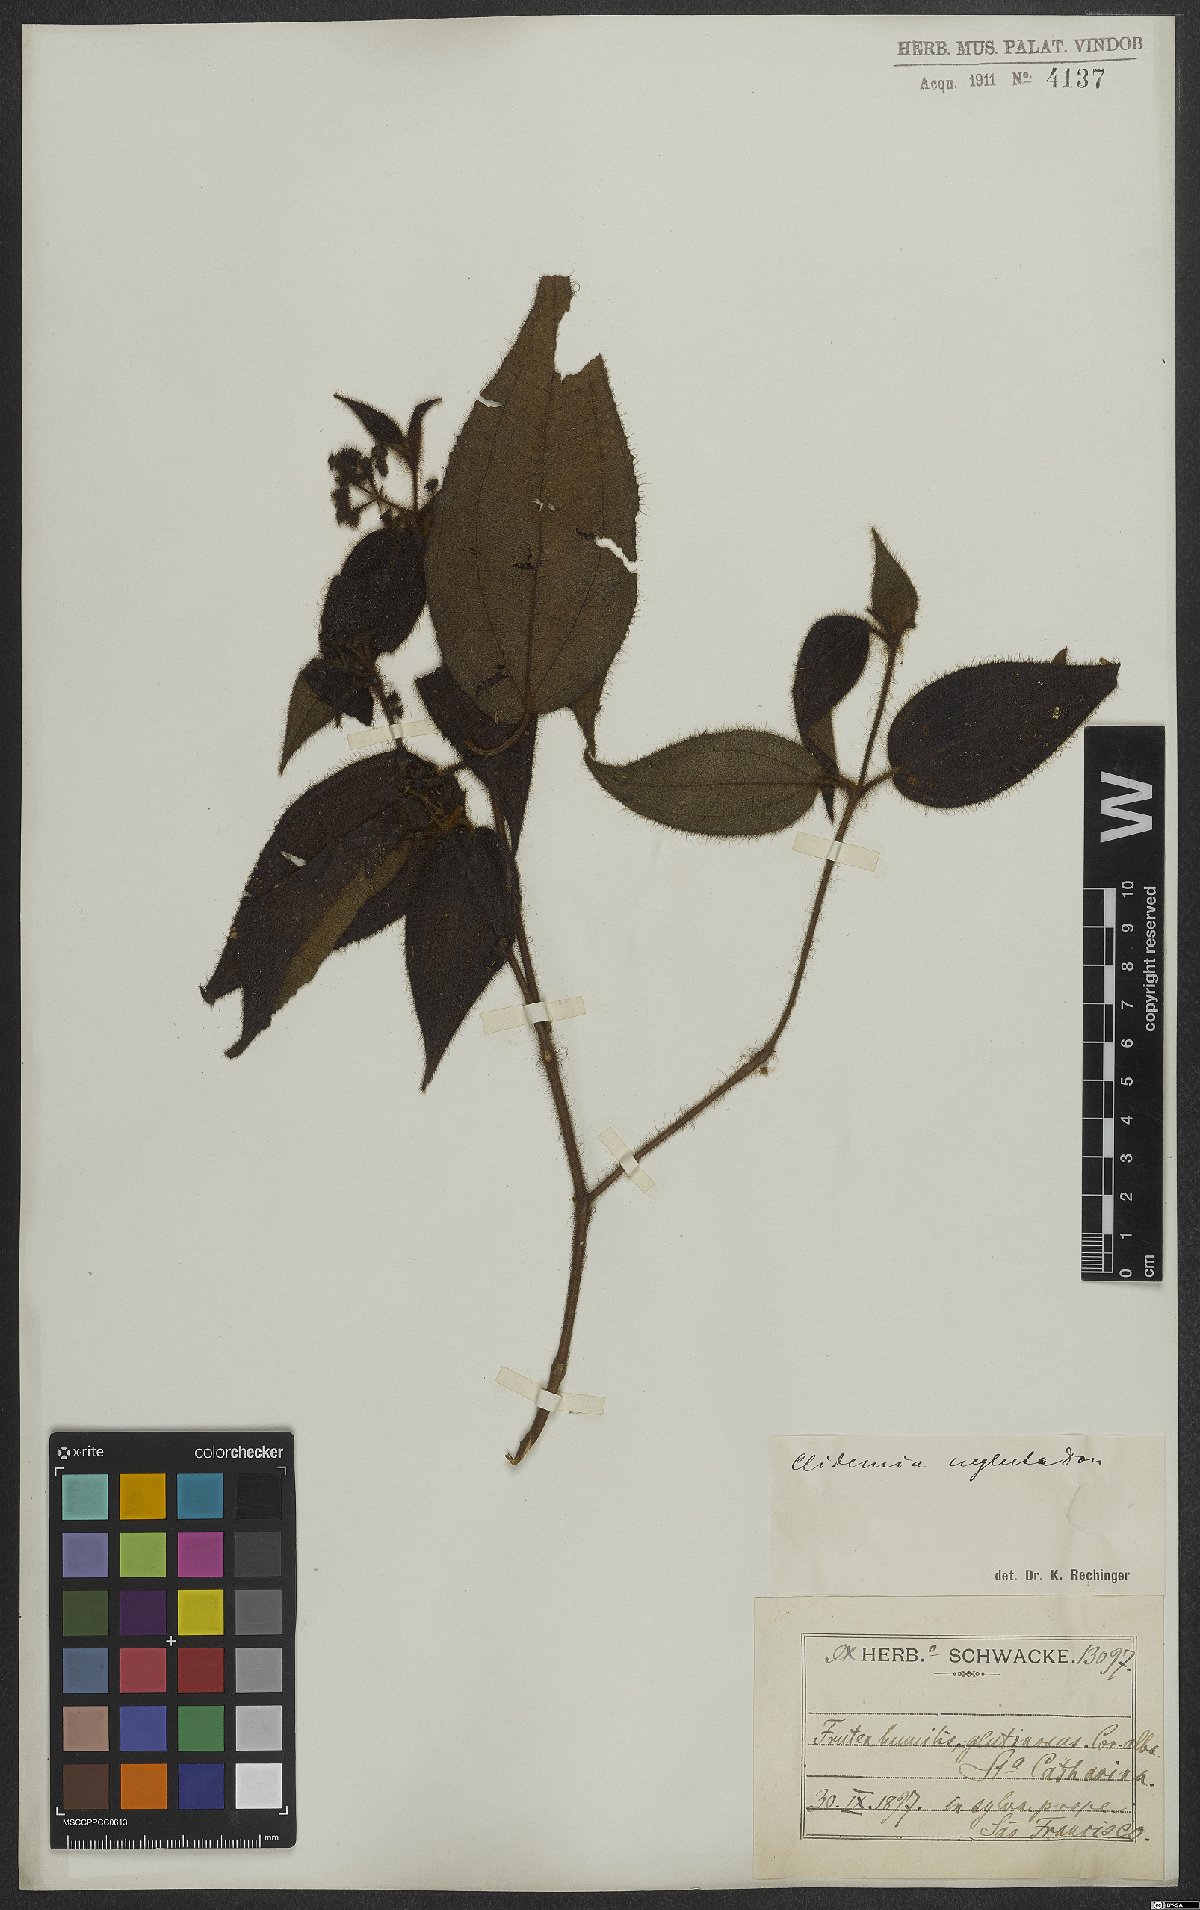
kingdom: Plantae
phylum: Tracheophyta
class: Magnoliopsida
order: Myrtales
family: Melastomataceae
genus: Miconia
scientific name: Miconia dependens
